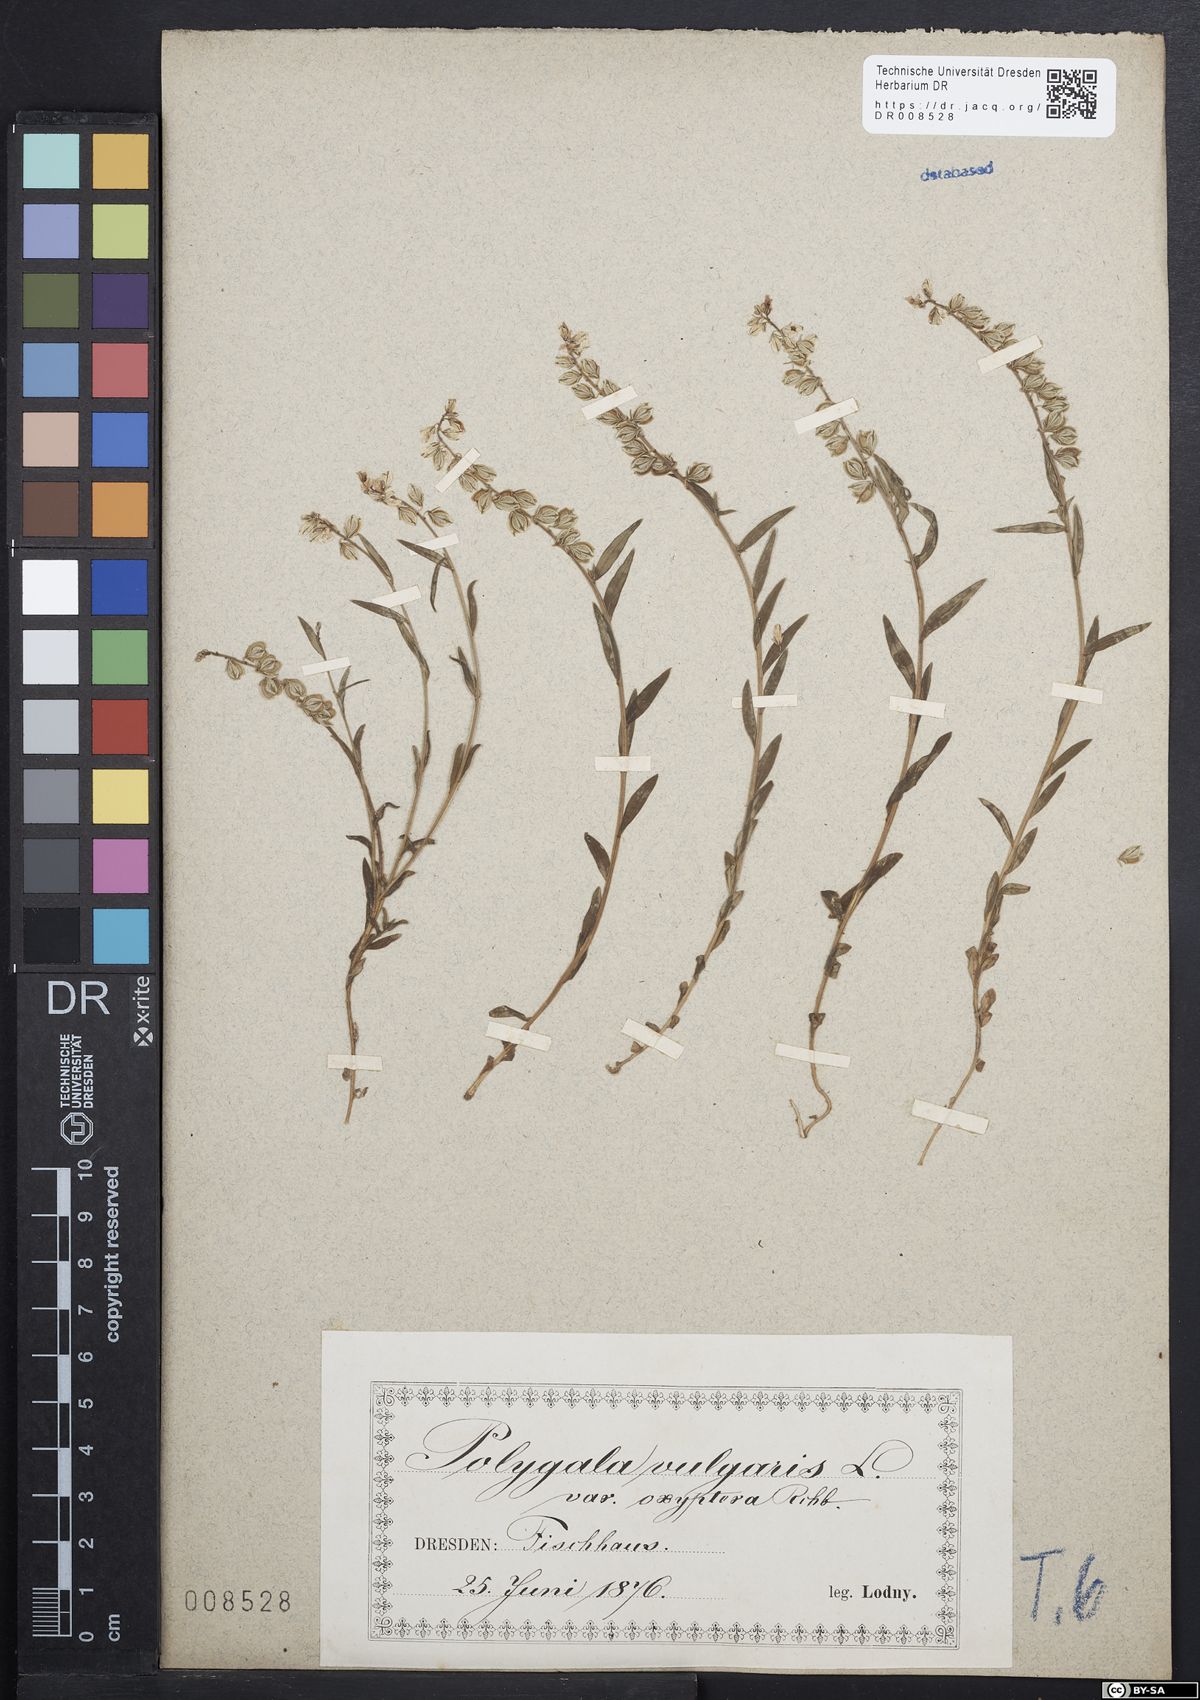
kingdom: Plantae
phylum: Tracheophyta
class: Magnoliopsida
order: Fabales
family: Polygalaceae
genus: Polygala
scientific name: Polygala vulgaris
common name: Common milkwort
